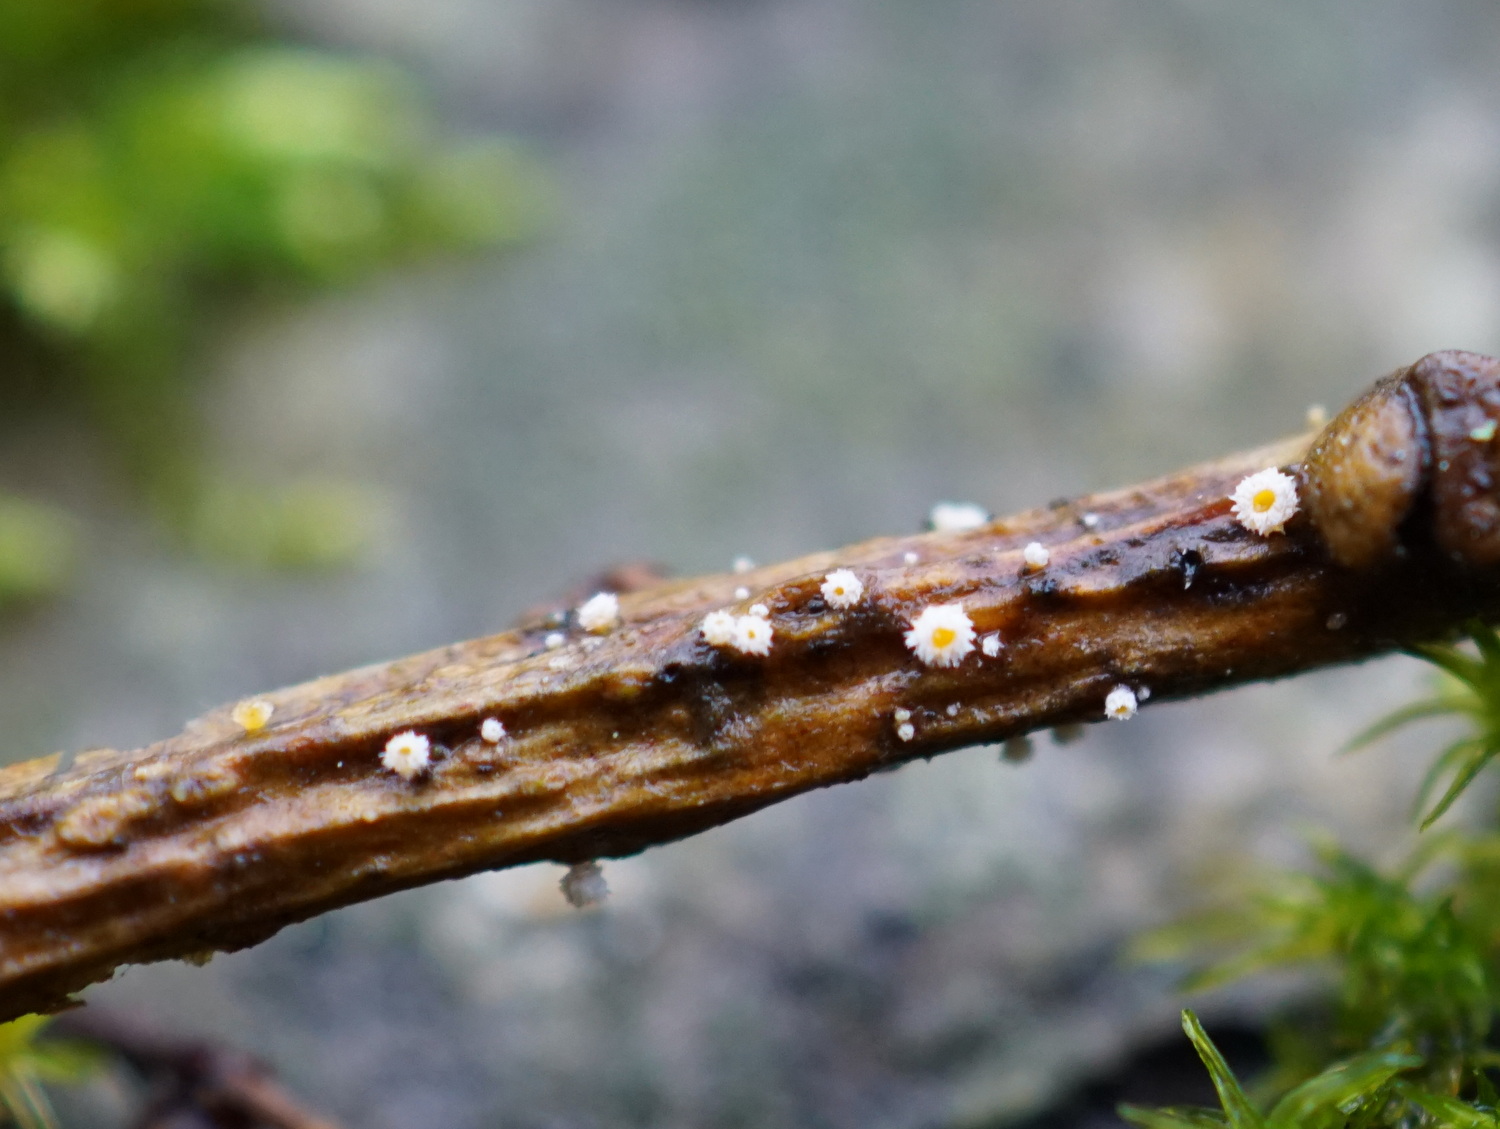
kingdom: Fungi
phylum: Ascomycota
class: Leotiomycetes
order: Helotiales
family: Lachnaceae
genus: Capitotricha
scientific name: Capitotricha bicolor
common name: prægtig frynseskive
